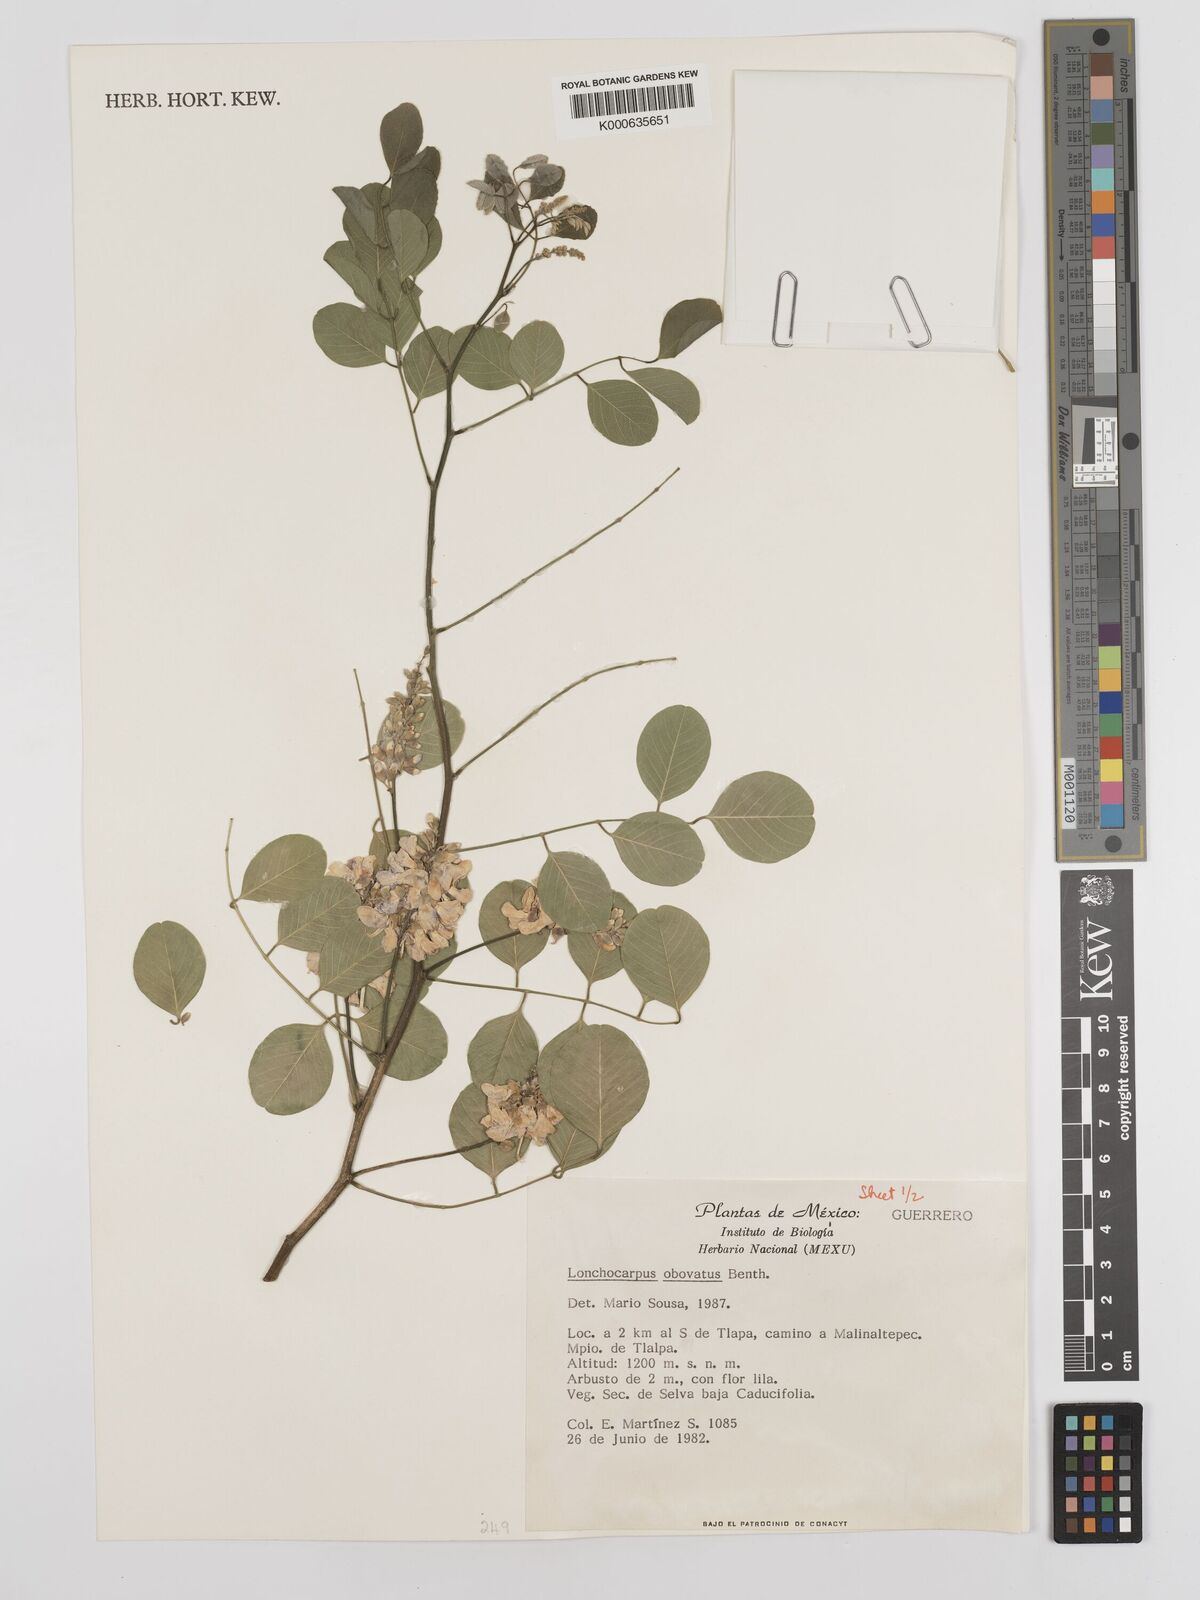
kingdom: Plantae
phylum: Tracheophyta
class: Magnoliopsida
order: Fabales
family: Fabaceae
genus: Lonchocarpus
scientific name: Lonchocarpus obovatus
